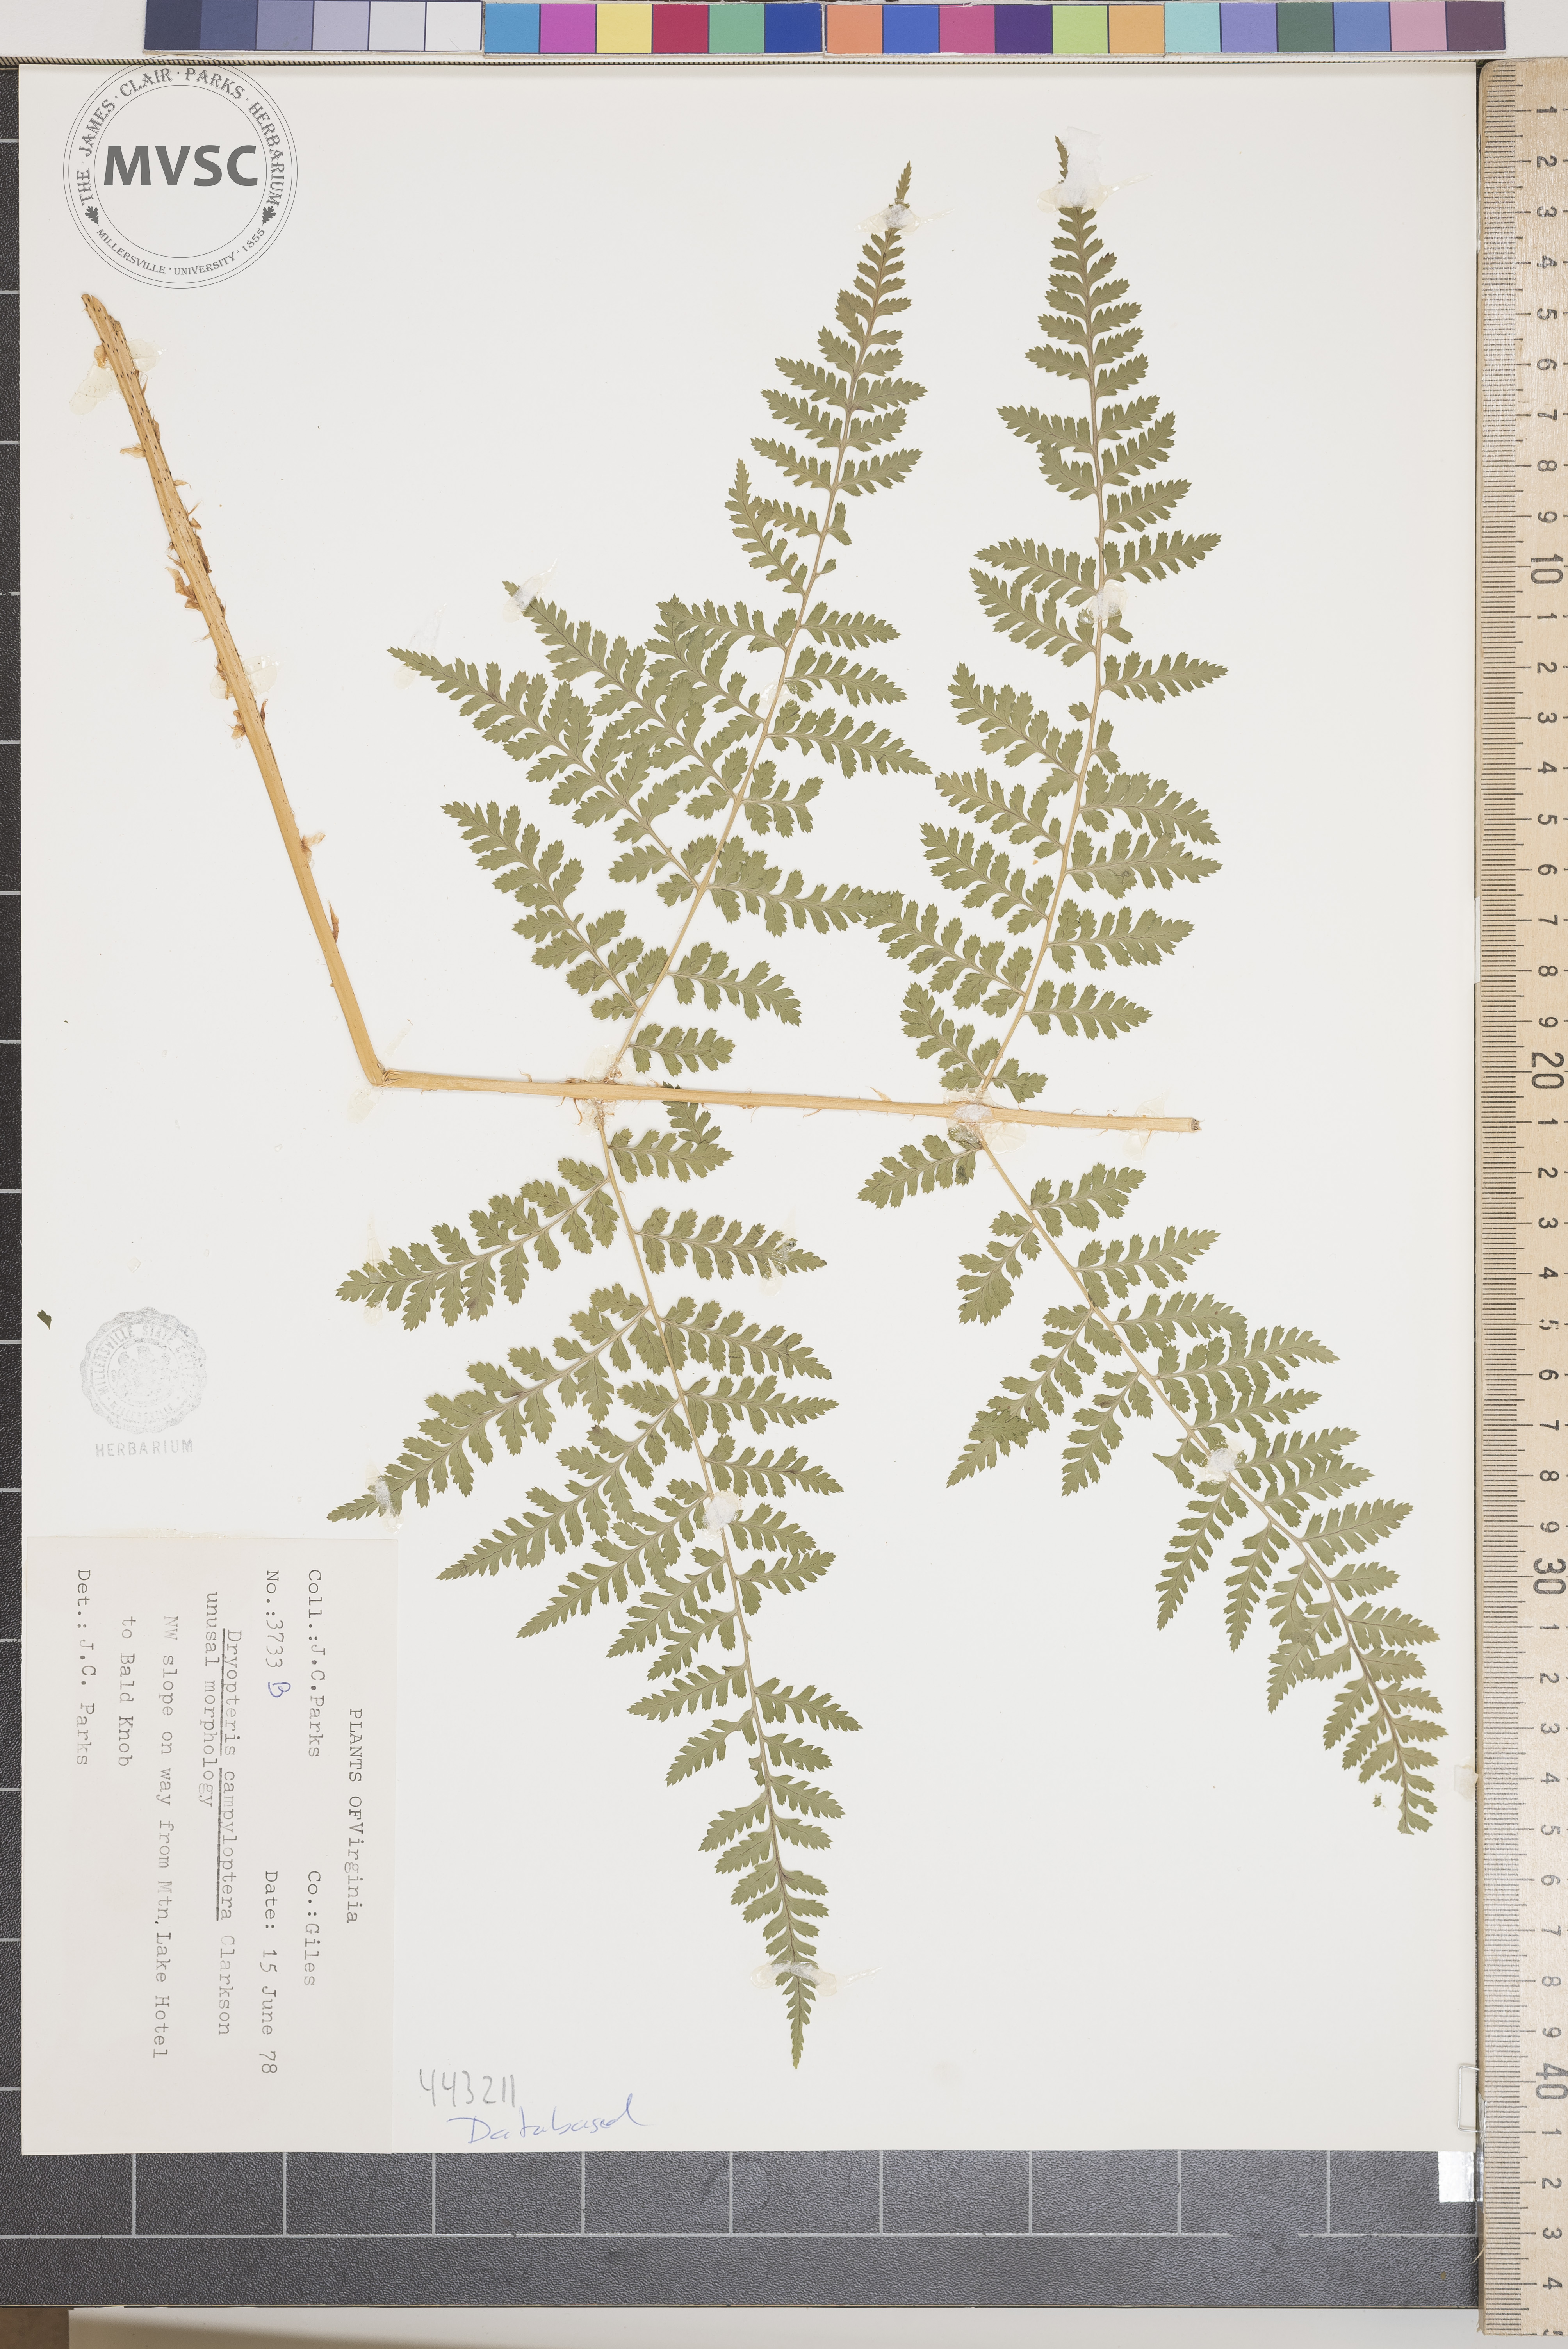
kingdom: Plantae
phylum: Tracheophyta
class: Polypodiopsida
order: Polypodiales
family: Dryopteridaceae
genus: Dryopteris
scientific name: Dryopteris carthusiana
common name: Narrow buckler-fern
